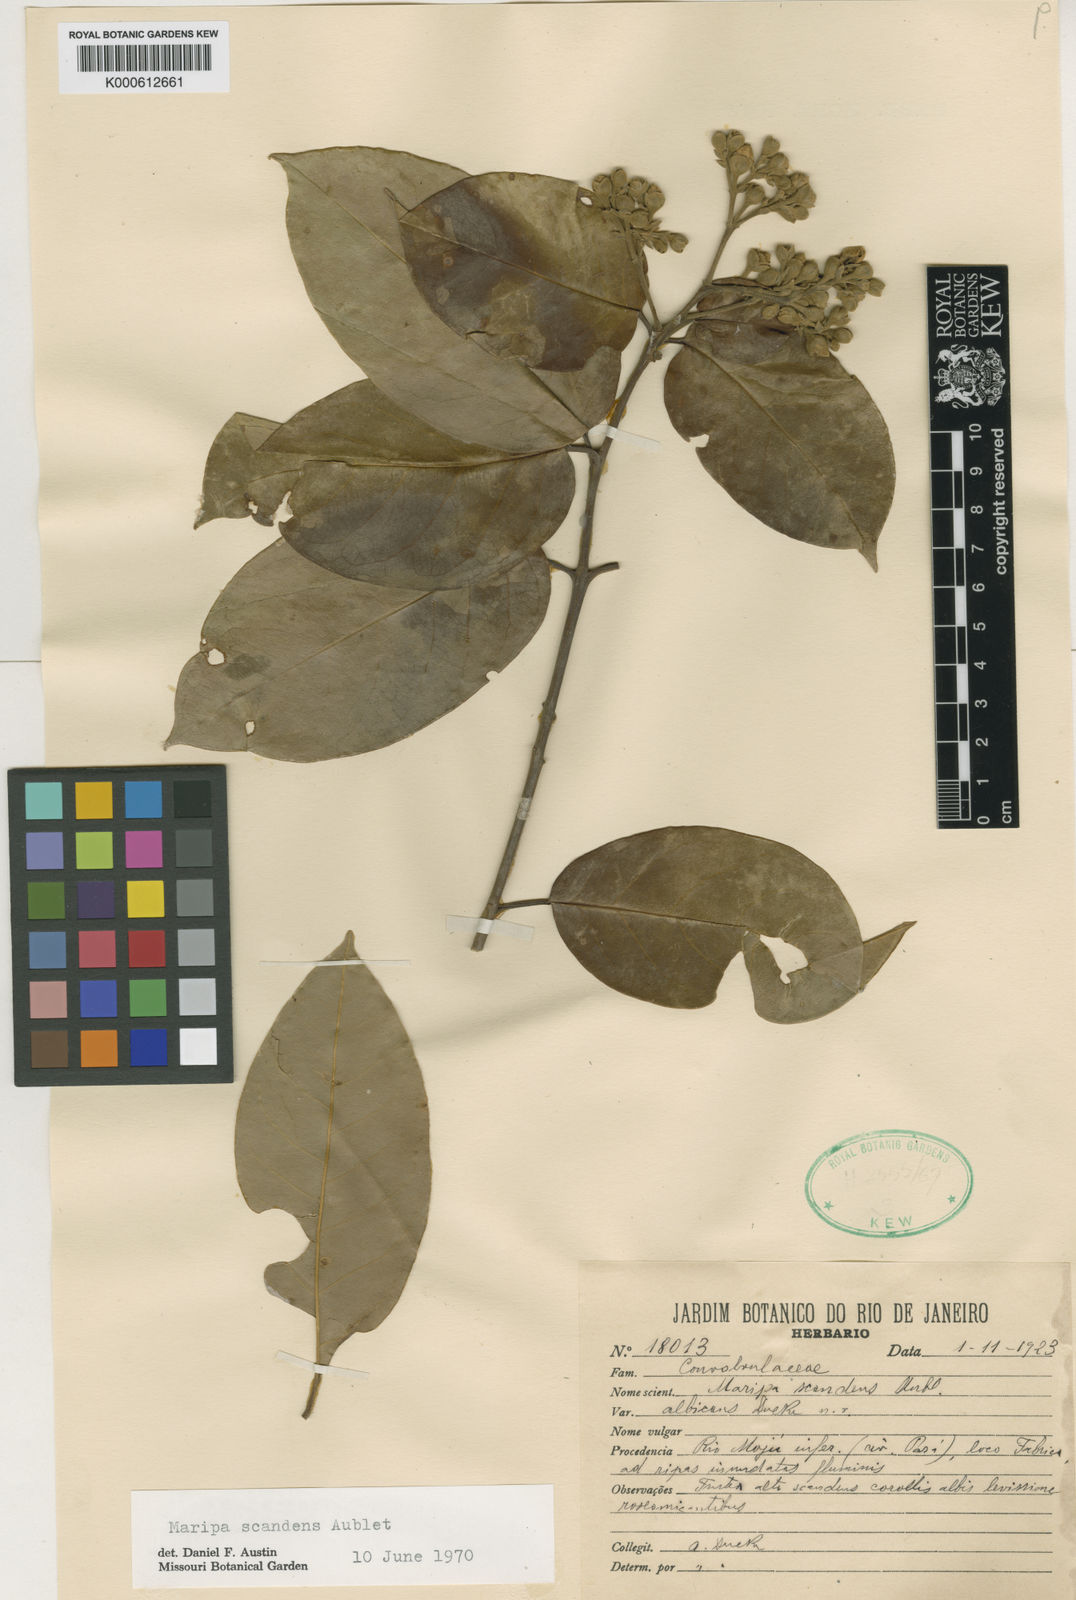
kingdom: Plantae
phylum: Tracheophyta
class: Magnoliopsida
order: Solanales
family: Convolvulaceae
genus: Maripa
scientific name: Maripa scandens
